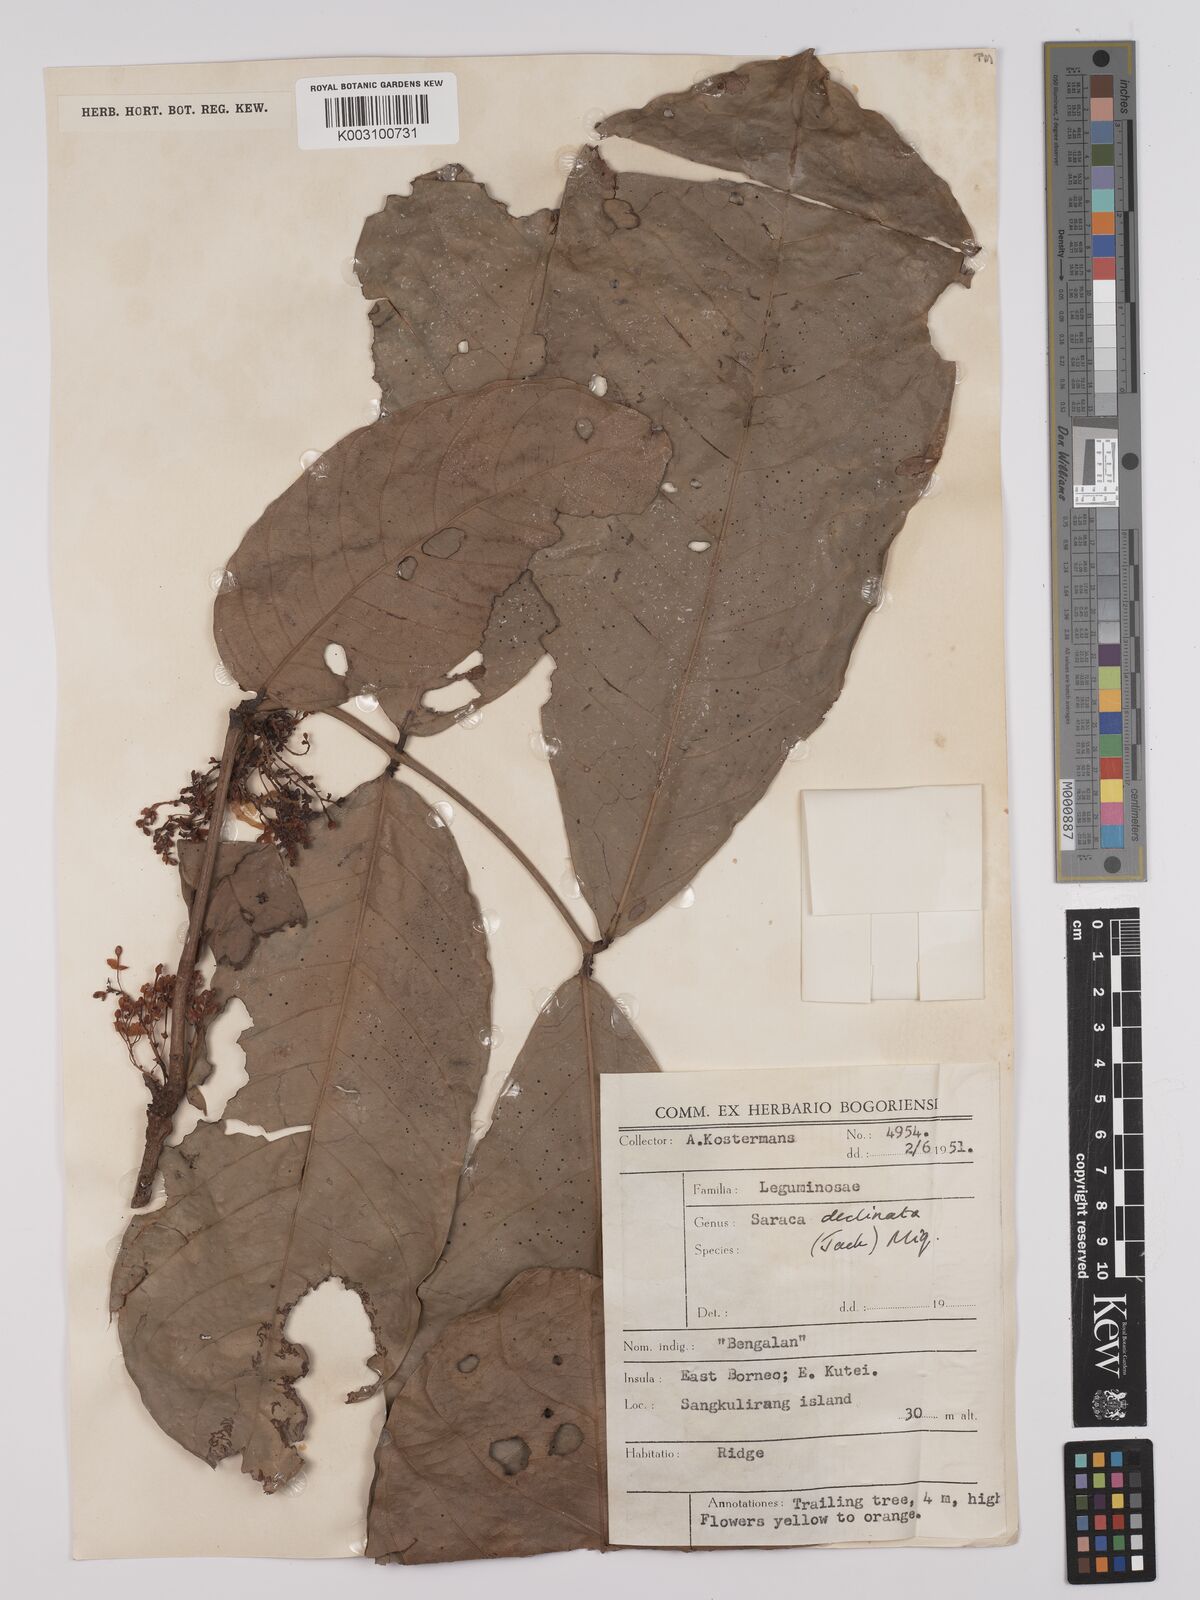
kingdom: Plantae
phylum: Tracheophyta
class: Magnoliopsida
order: Fabales
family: Fabaceae
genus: Saraca
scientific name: Saraca declinata
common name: Red saraca
